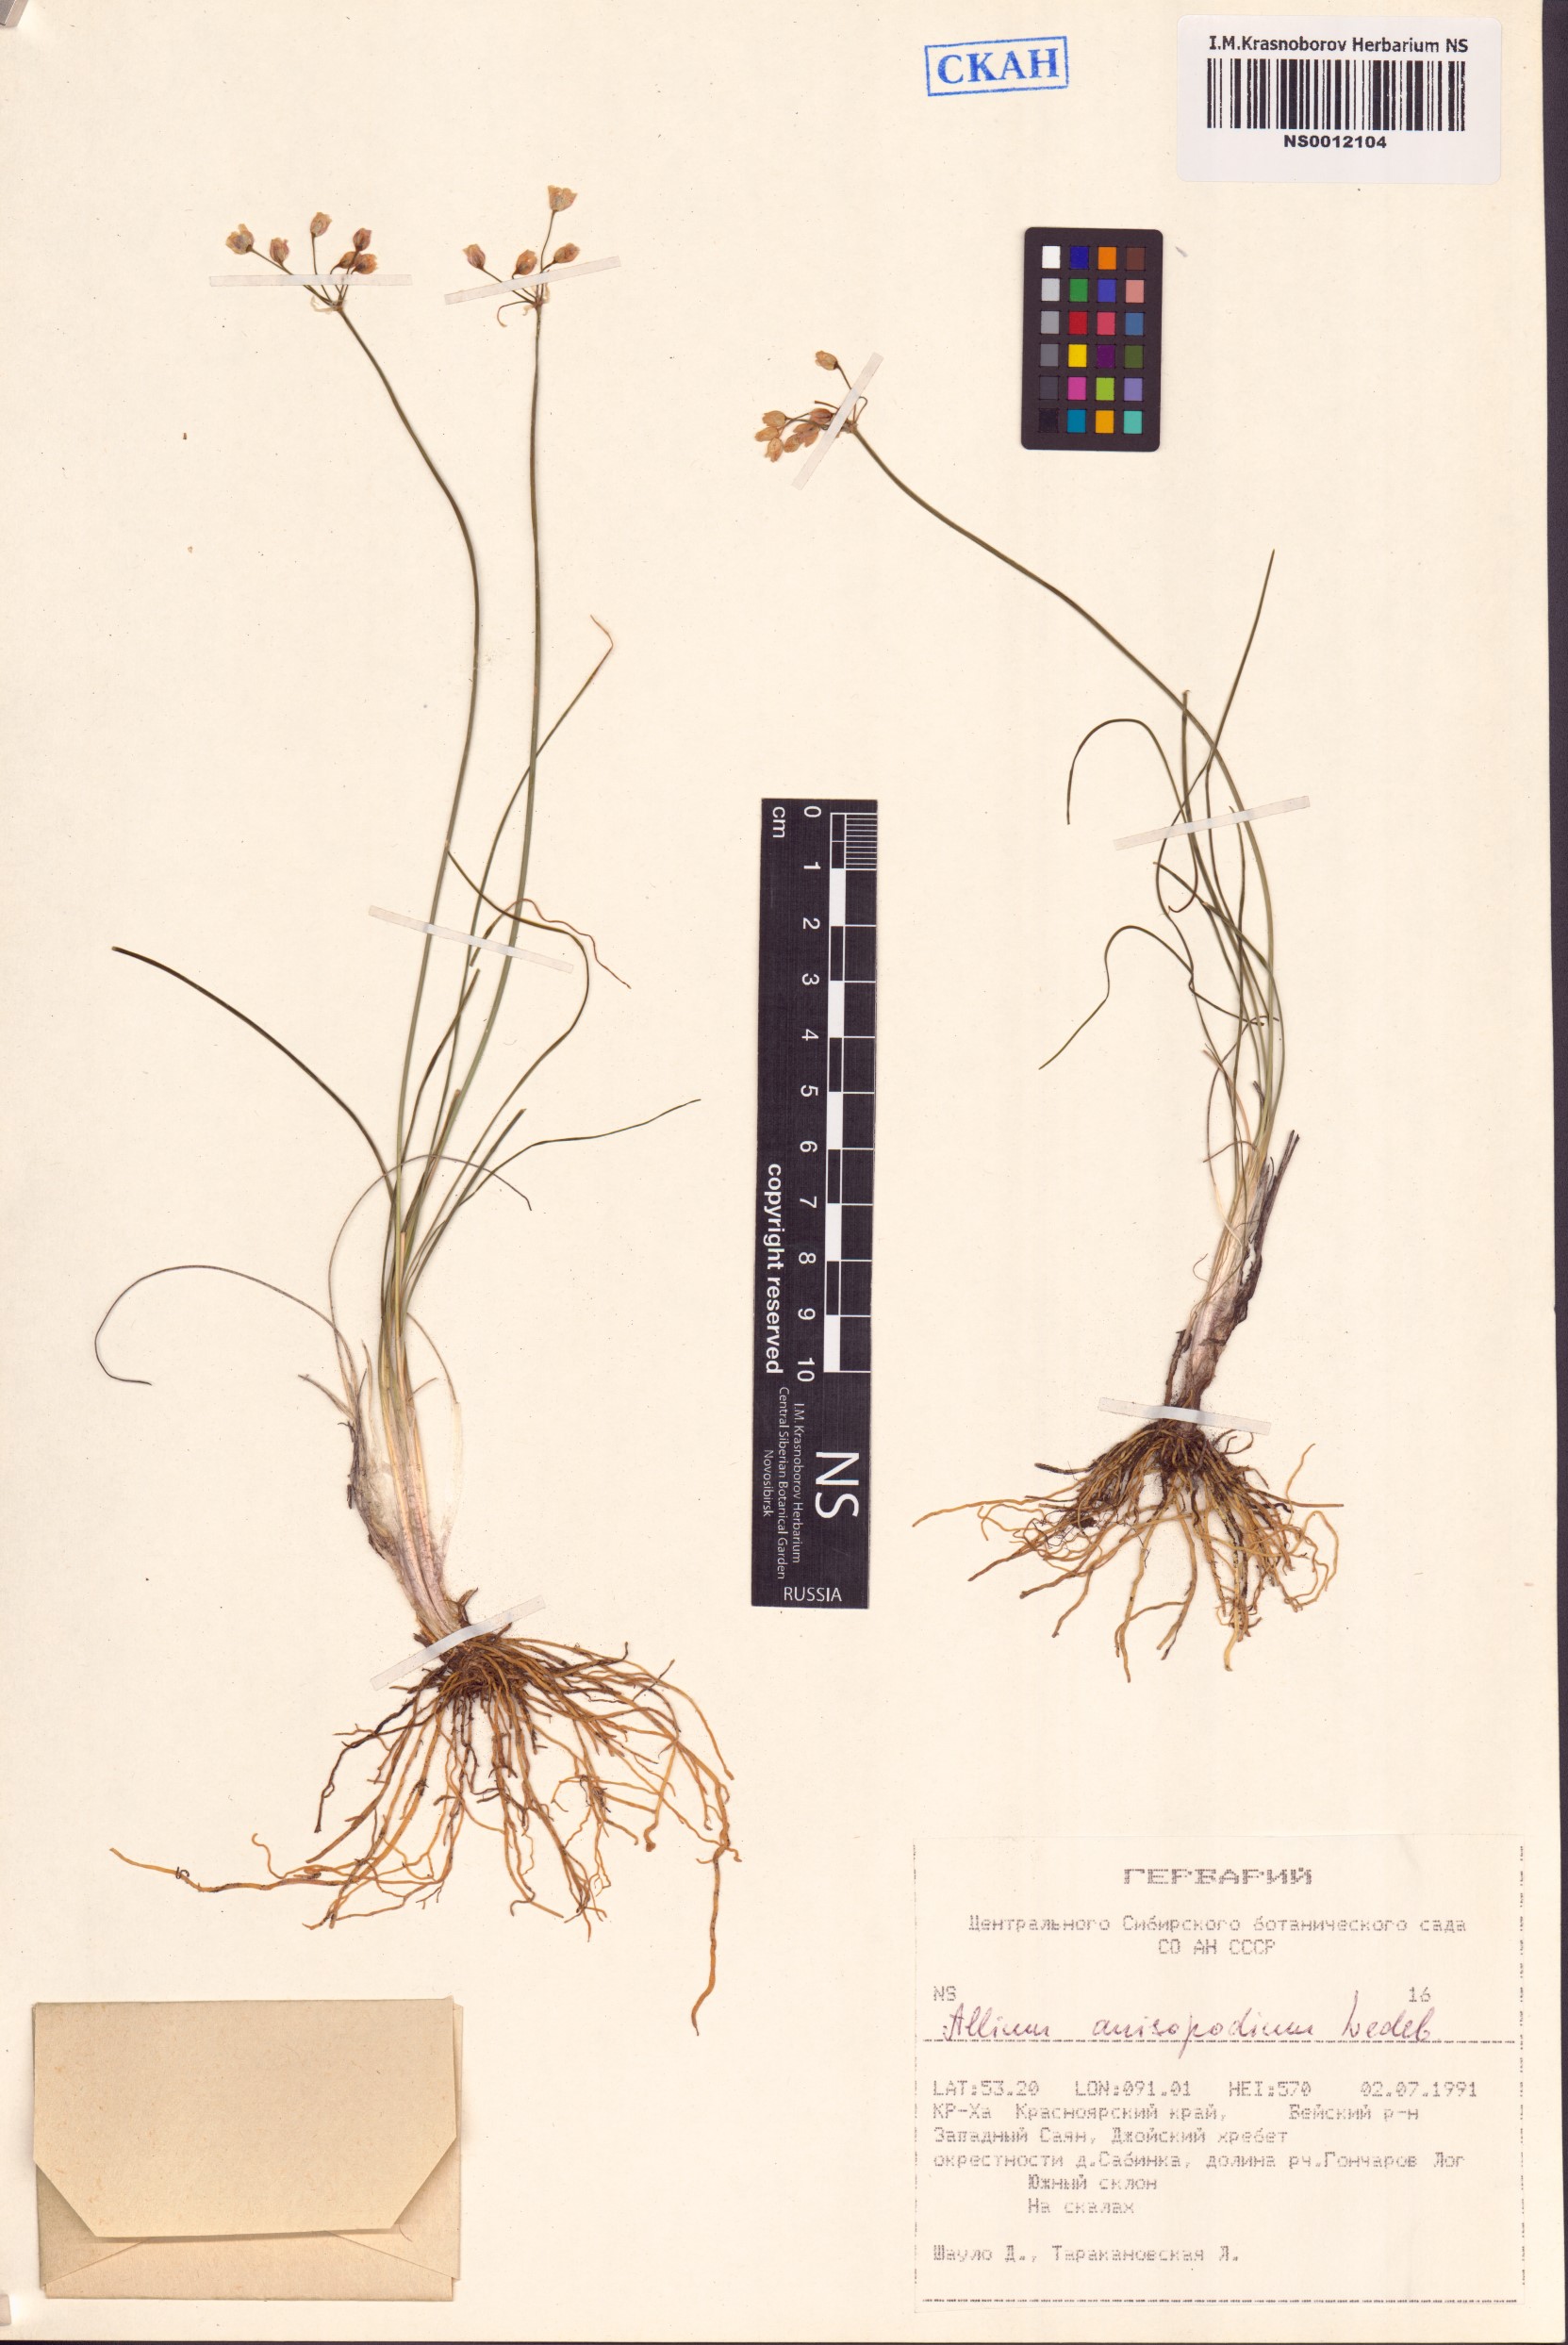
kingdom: Plantae
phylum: Tracheophyta
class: Liliopsida
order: Asparagales
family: Amaryllidaceae
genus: Allium
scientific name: Allium anisopodium
